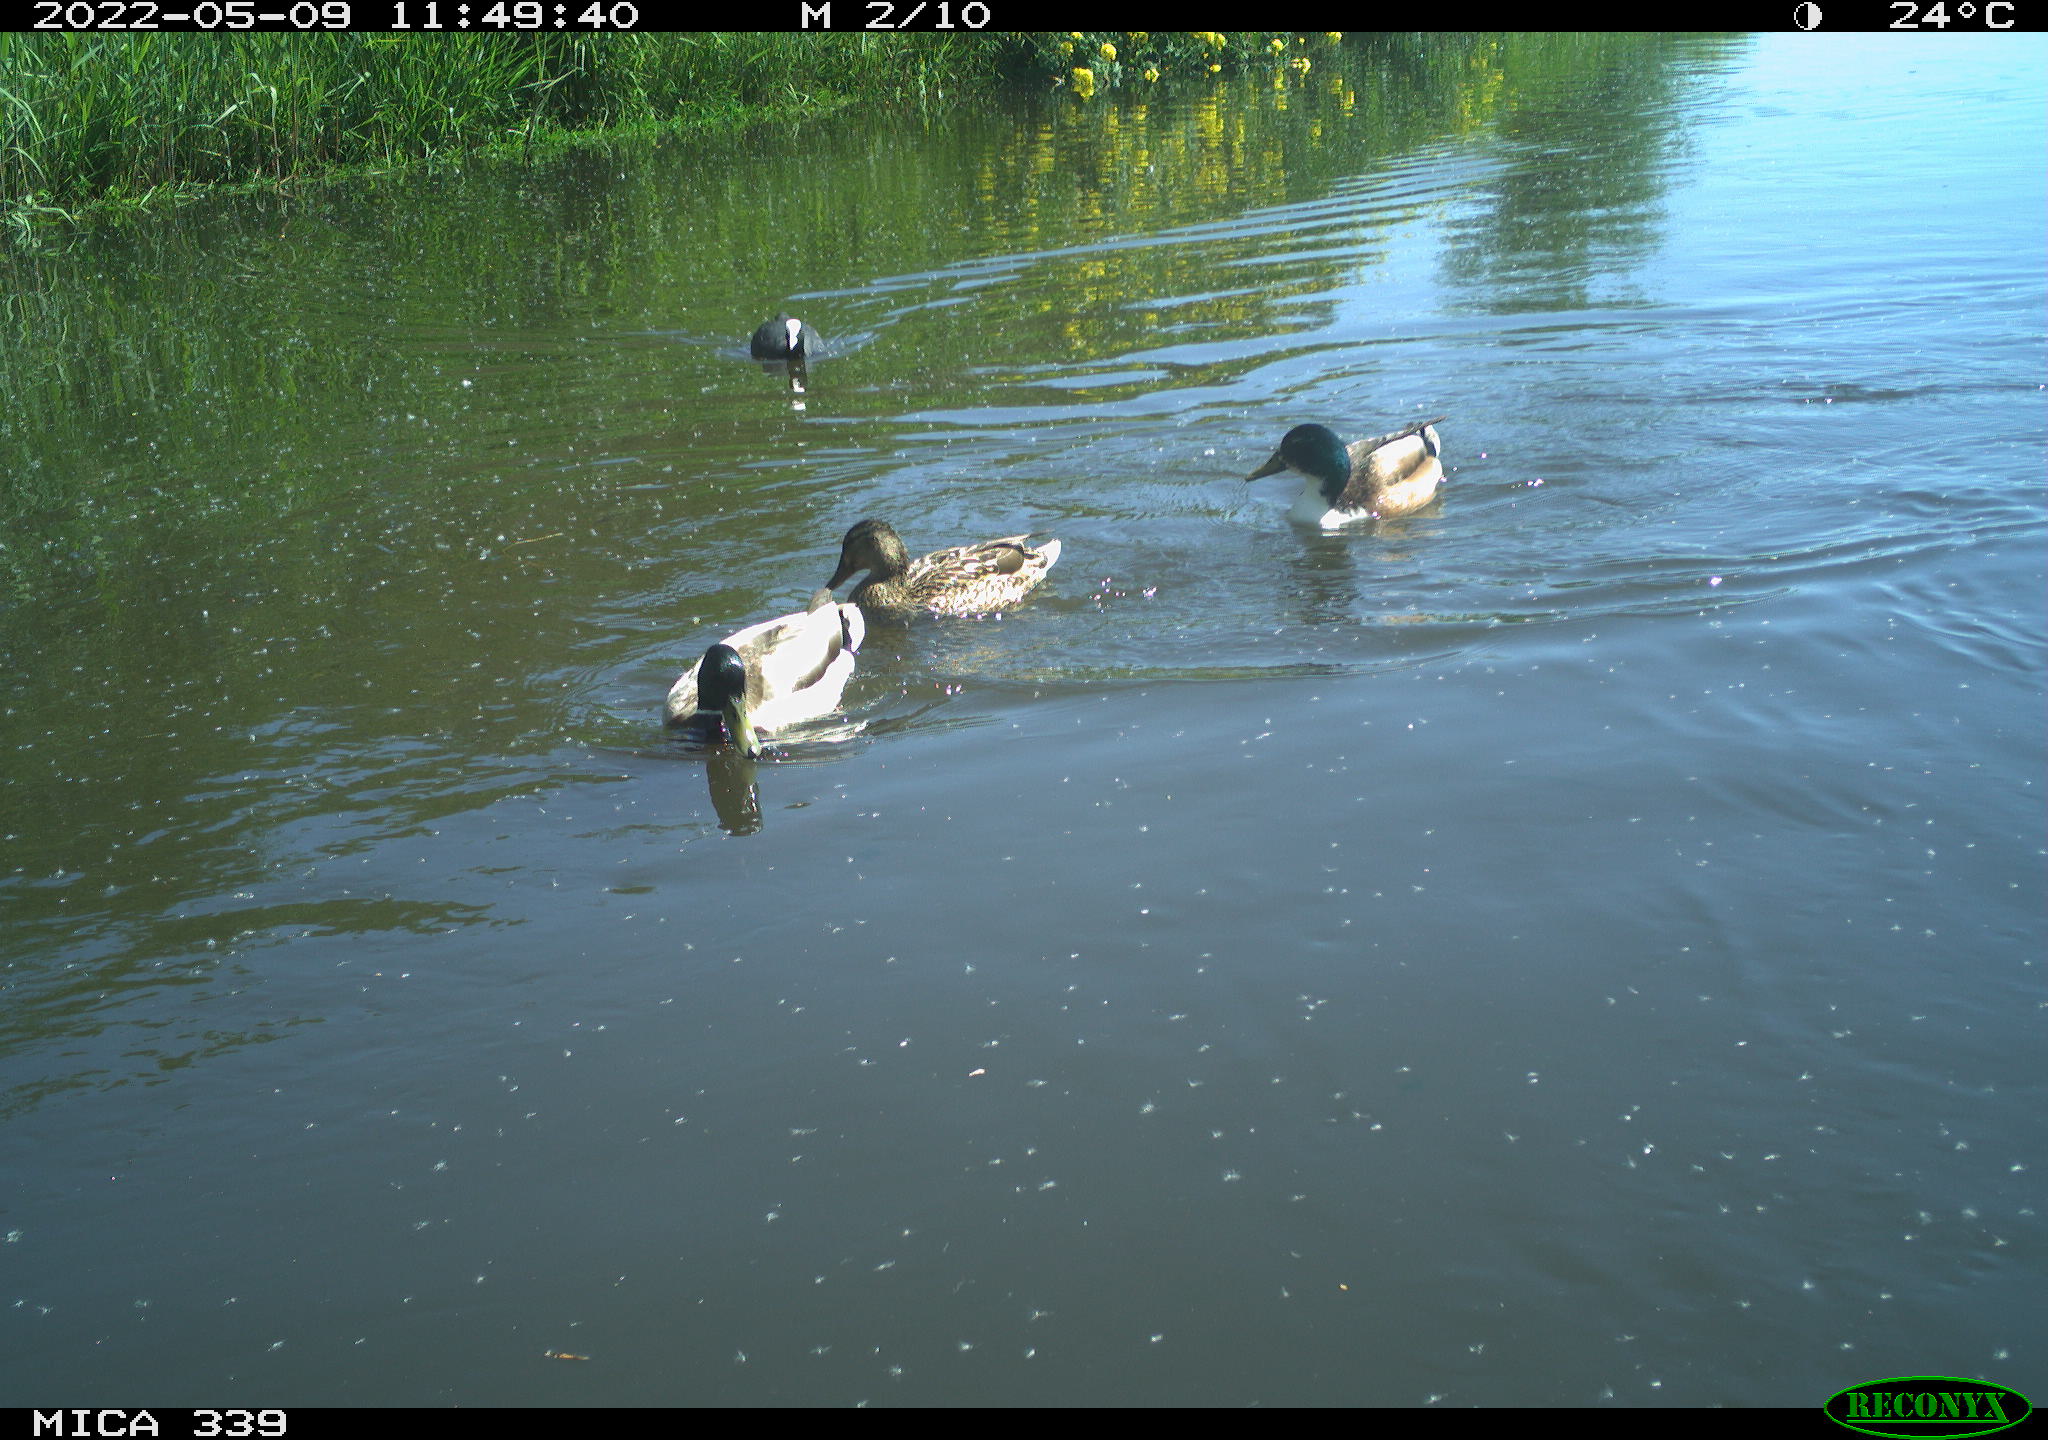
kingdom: Animalia
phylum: Chordata
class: Aves
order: Gruiformes
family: Rallidae
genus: Gallinula
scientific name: Gallinula chloropus
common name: Common moorhen
